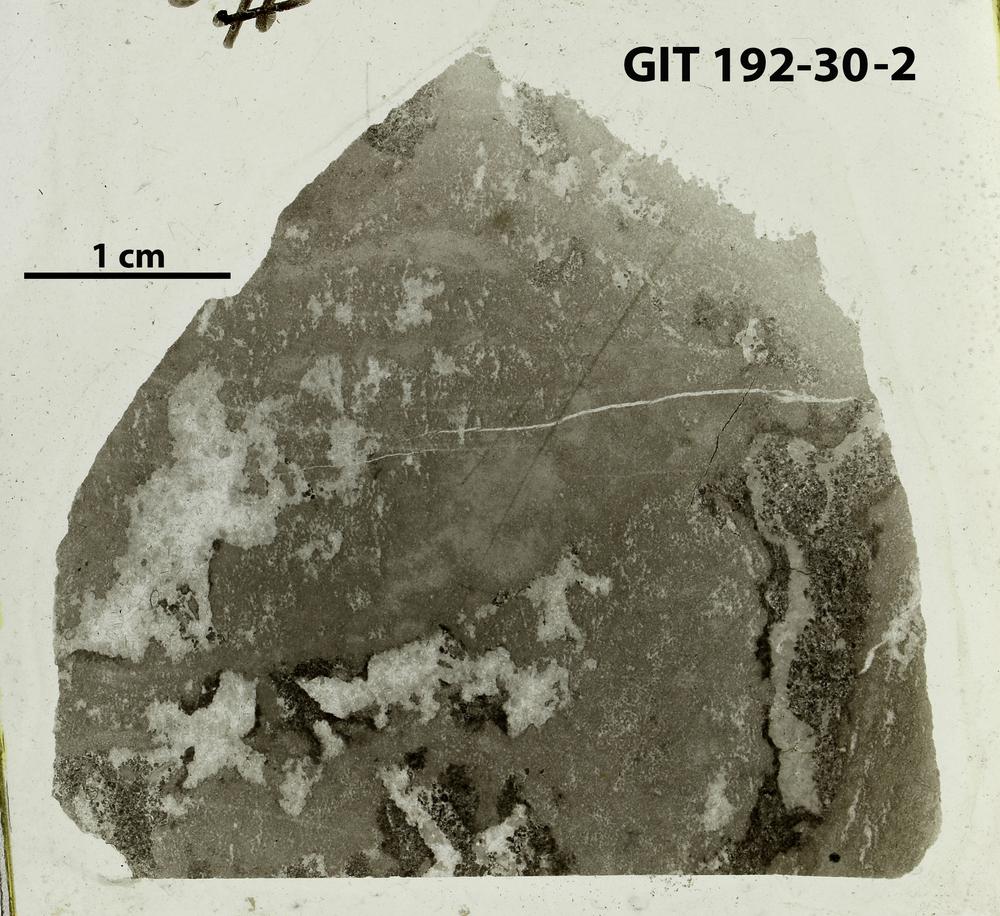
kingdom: Animalia
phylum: Porifera
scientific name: Porifera
